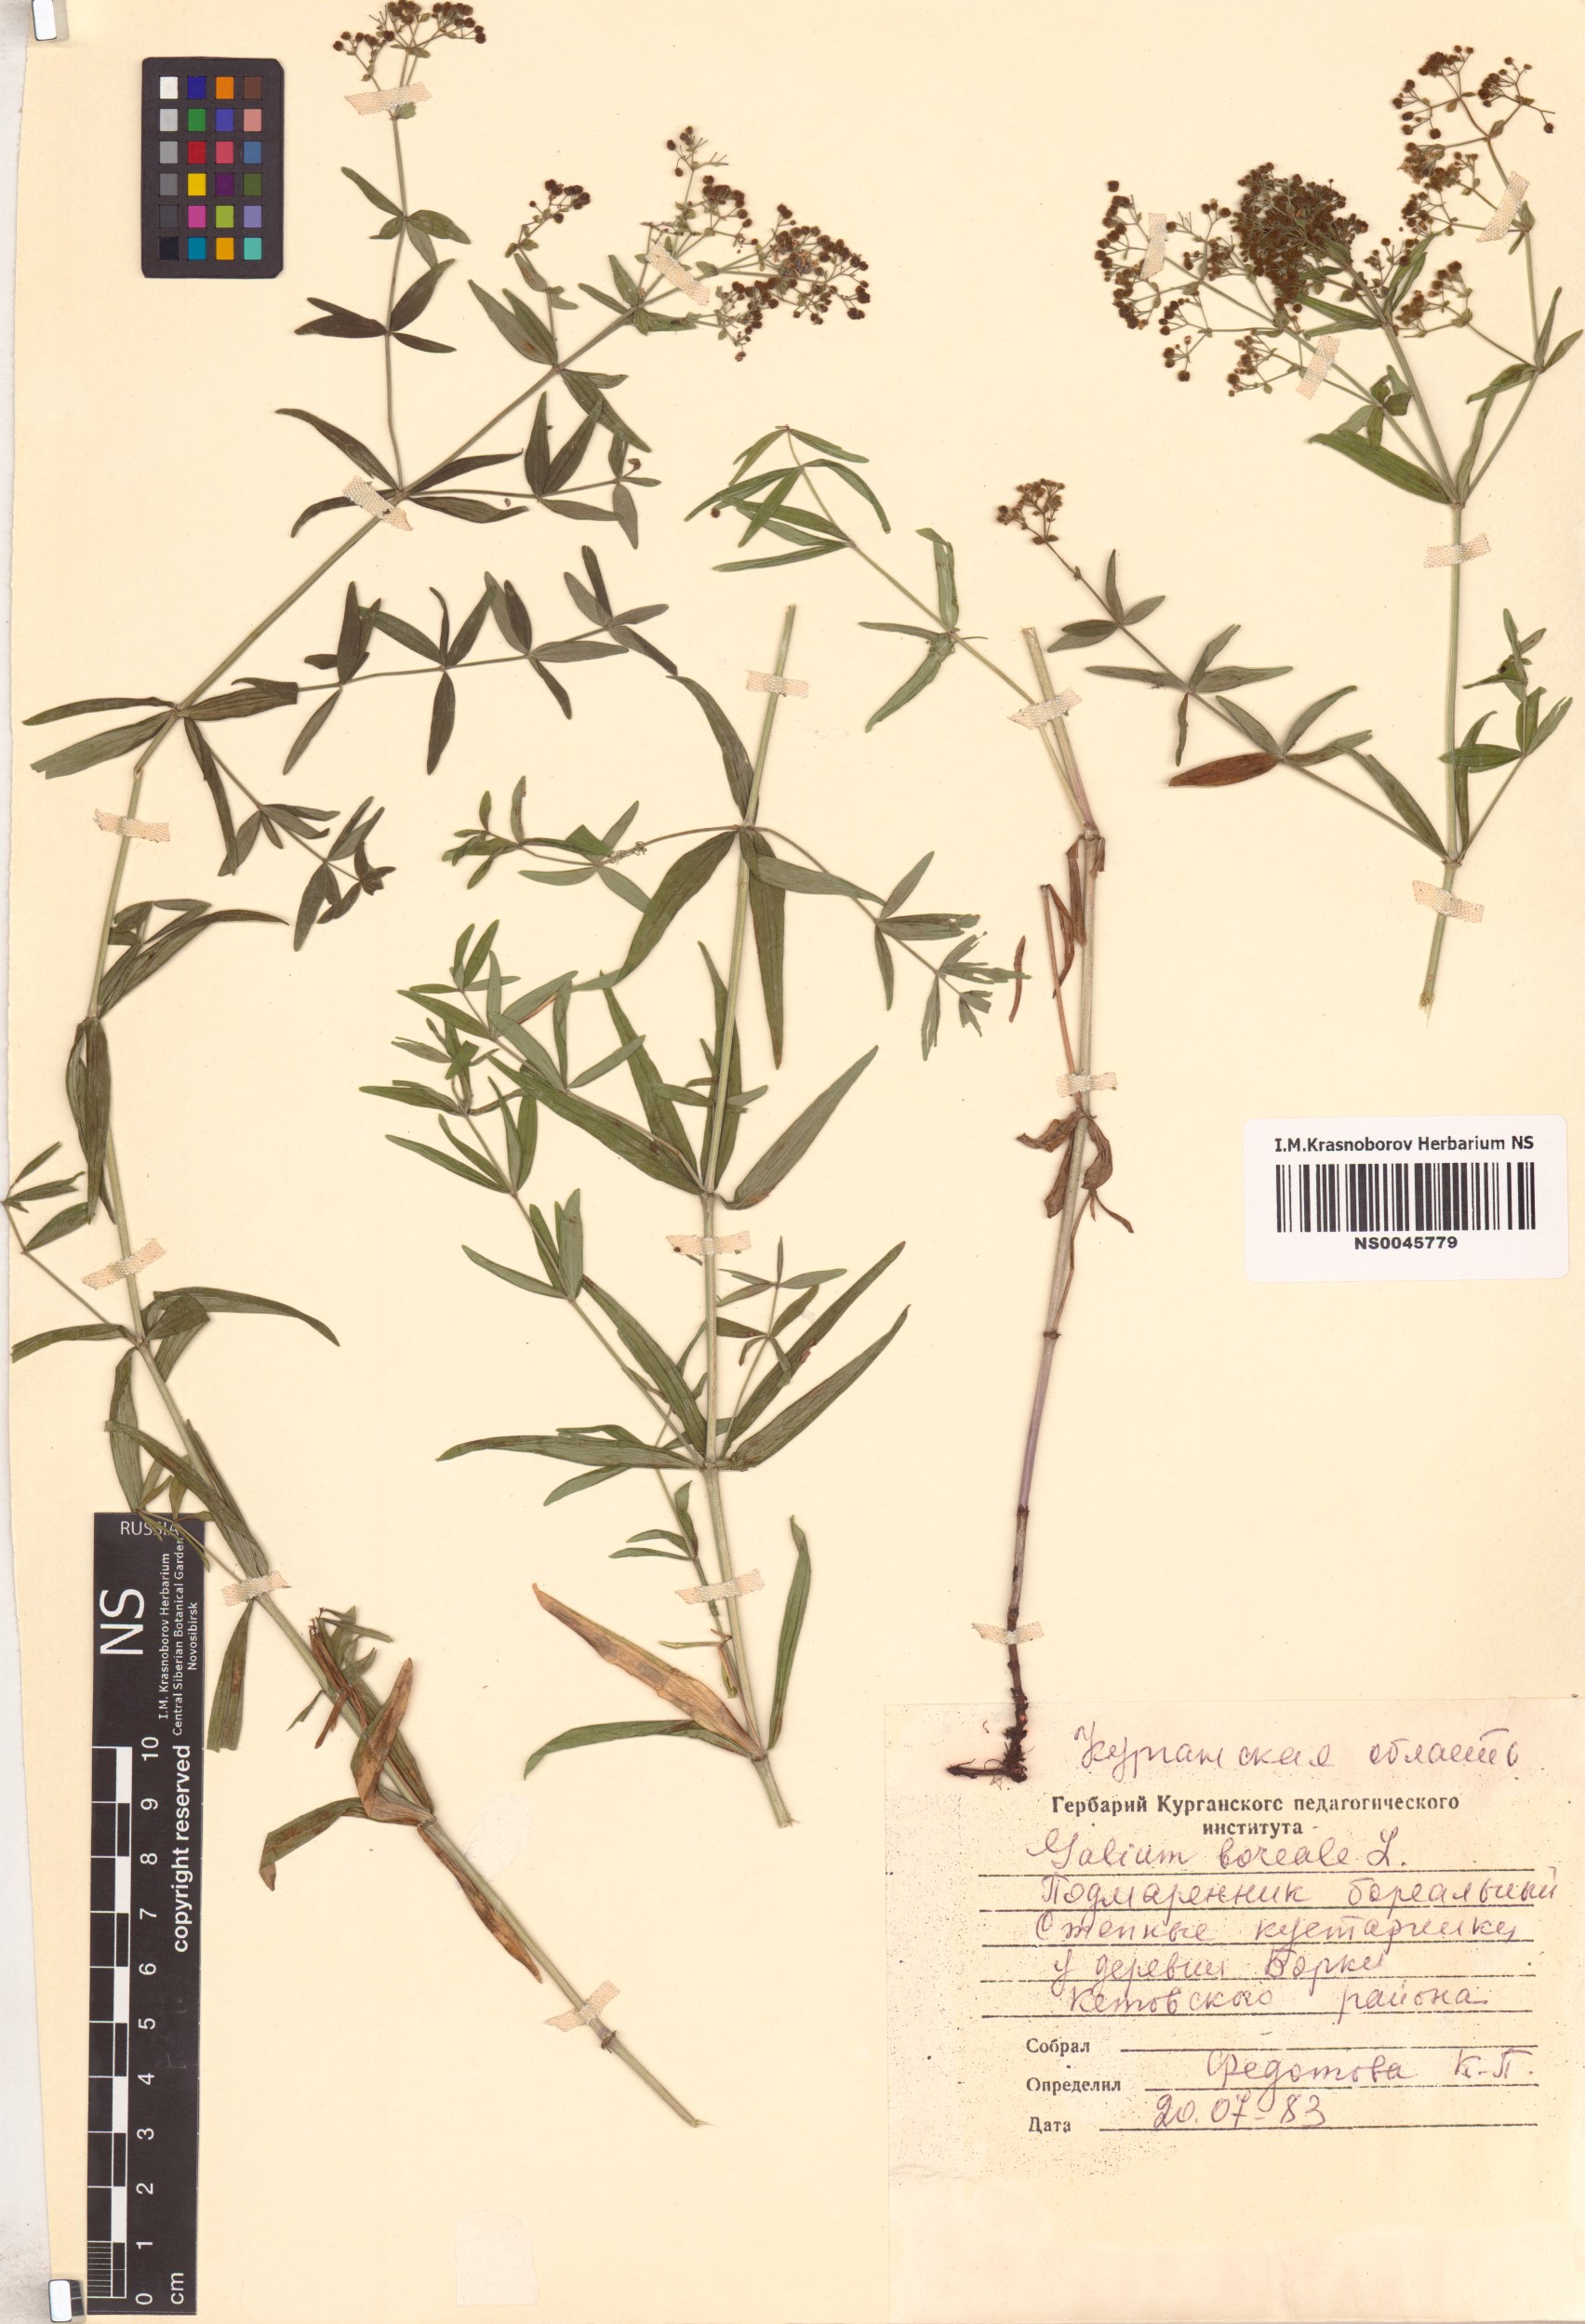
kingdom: Plantae
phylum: Tracheophyta
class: Magnoliopsida
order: Gentianales
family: Rubiaceae
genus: Galium
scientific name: Galium boreale
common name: Northern bedstraw
